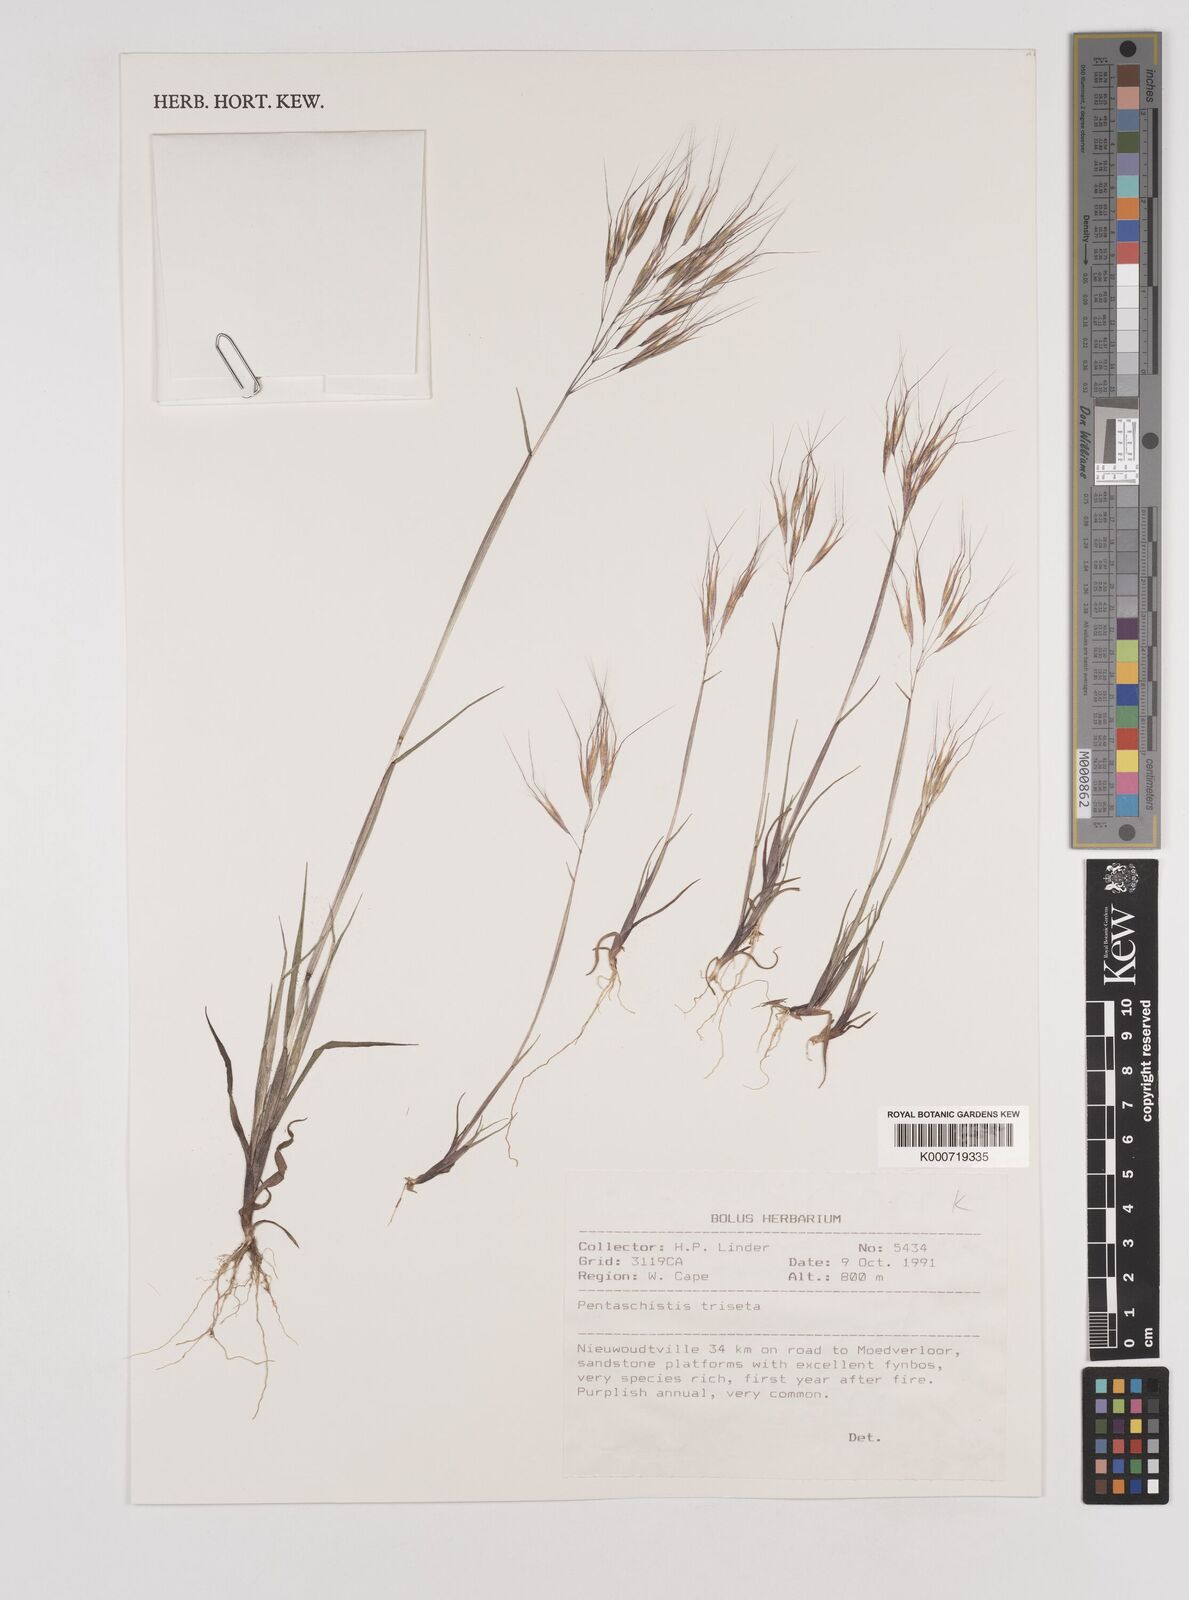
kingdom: Plantae
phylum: Tracheophyta
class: Liliopsida
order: Poales
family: Poaceae
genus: Pentameris
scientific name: Pentameris triseta
